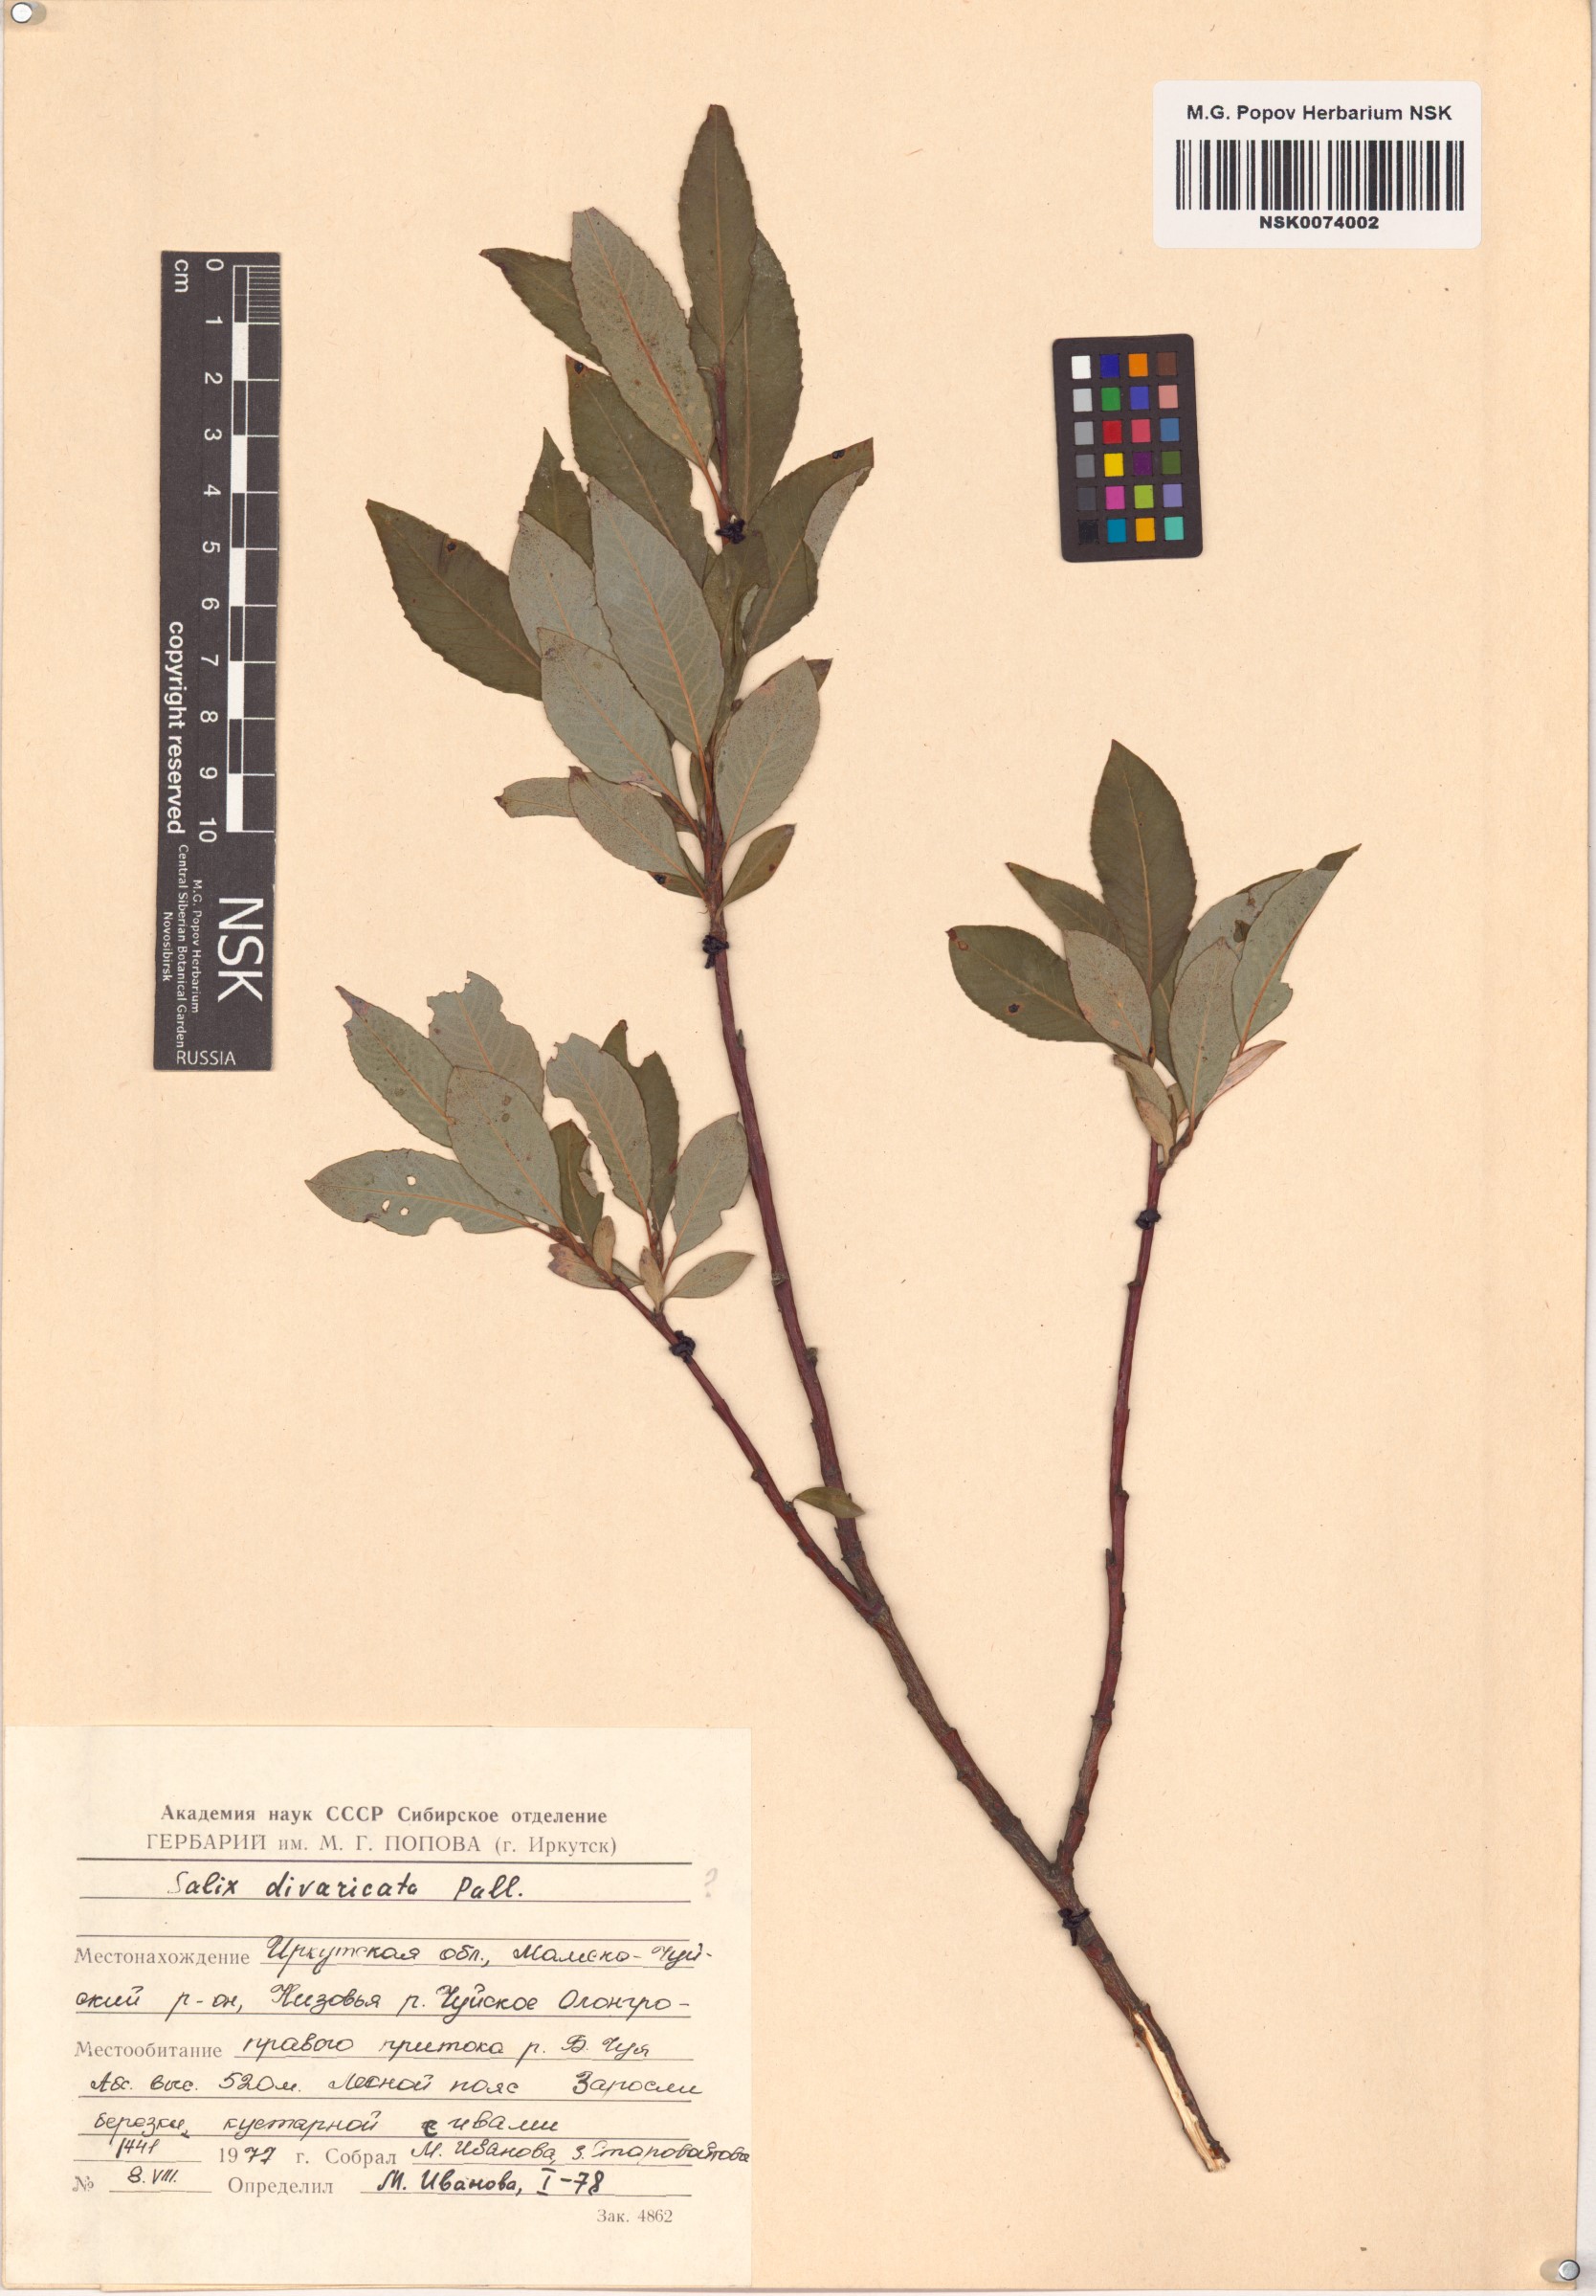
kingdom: Plantae
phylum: Tracheophyta
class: Magnoliopsida
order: Malpighiales
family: Salicaceae
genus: Salix
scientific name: Salix divaricata
